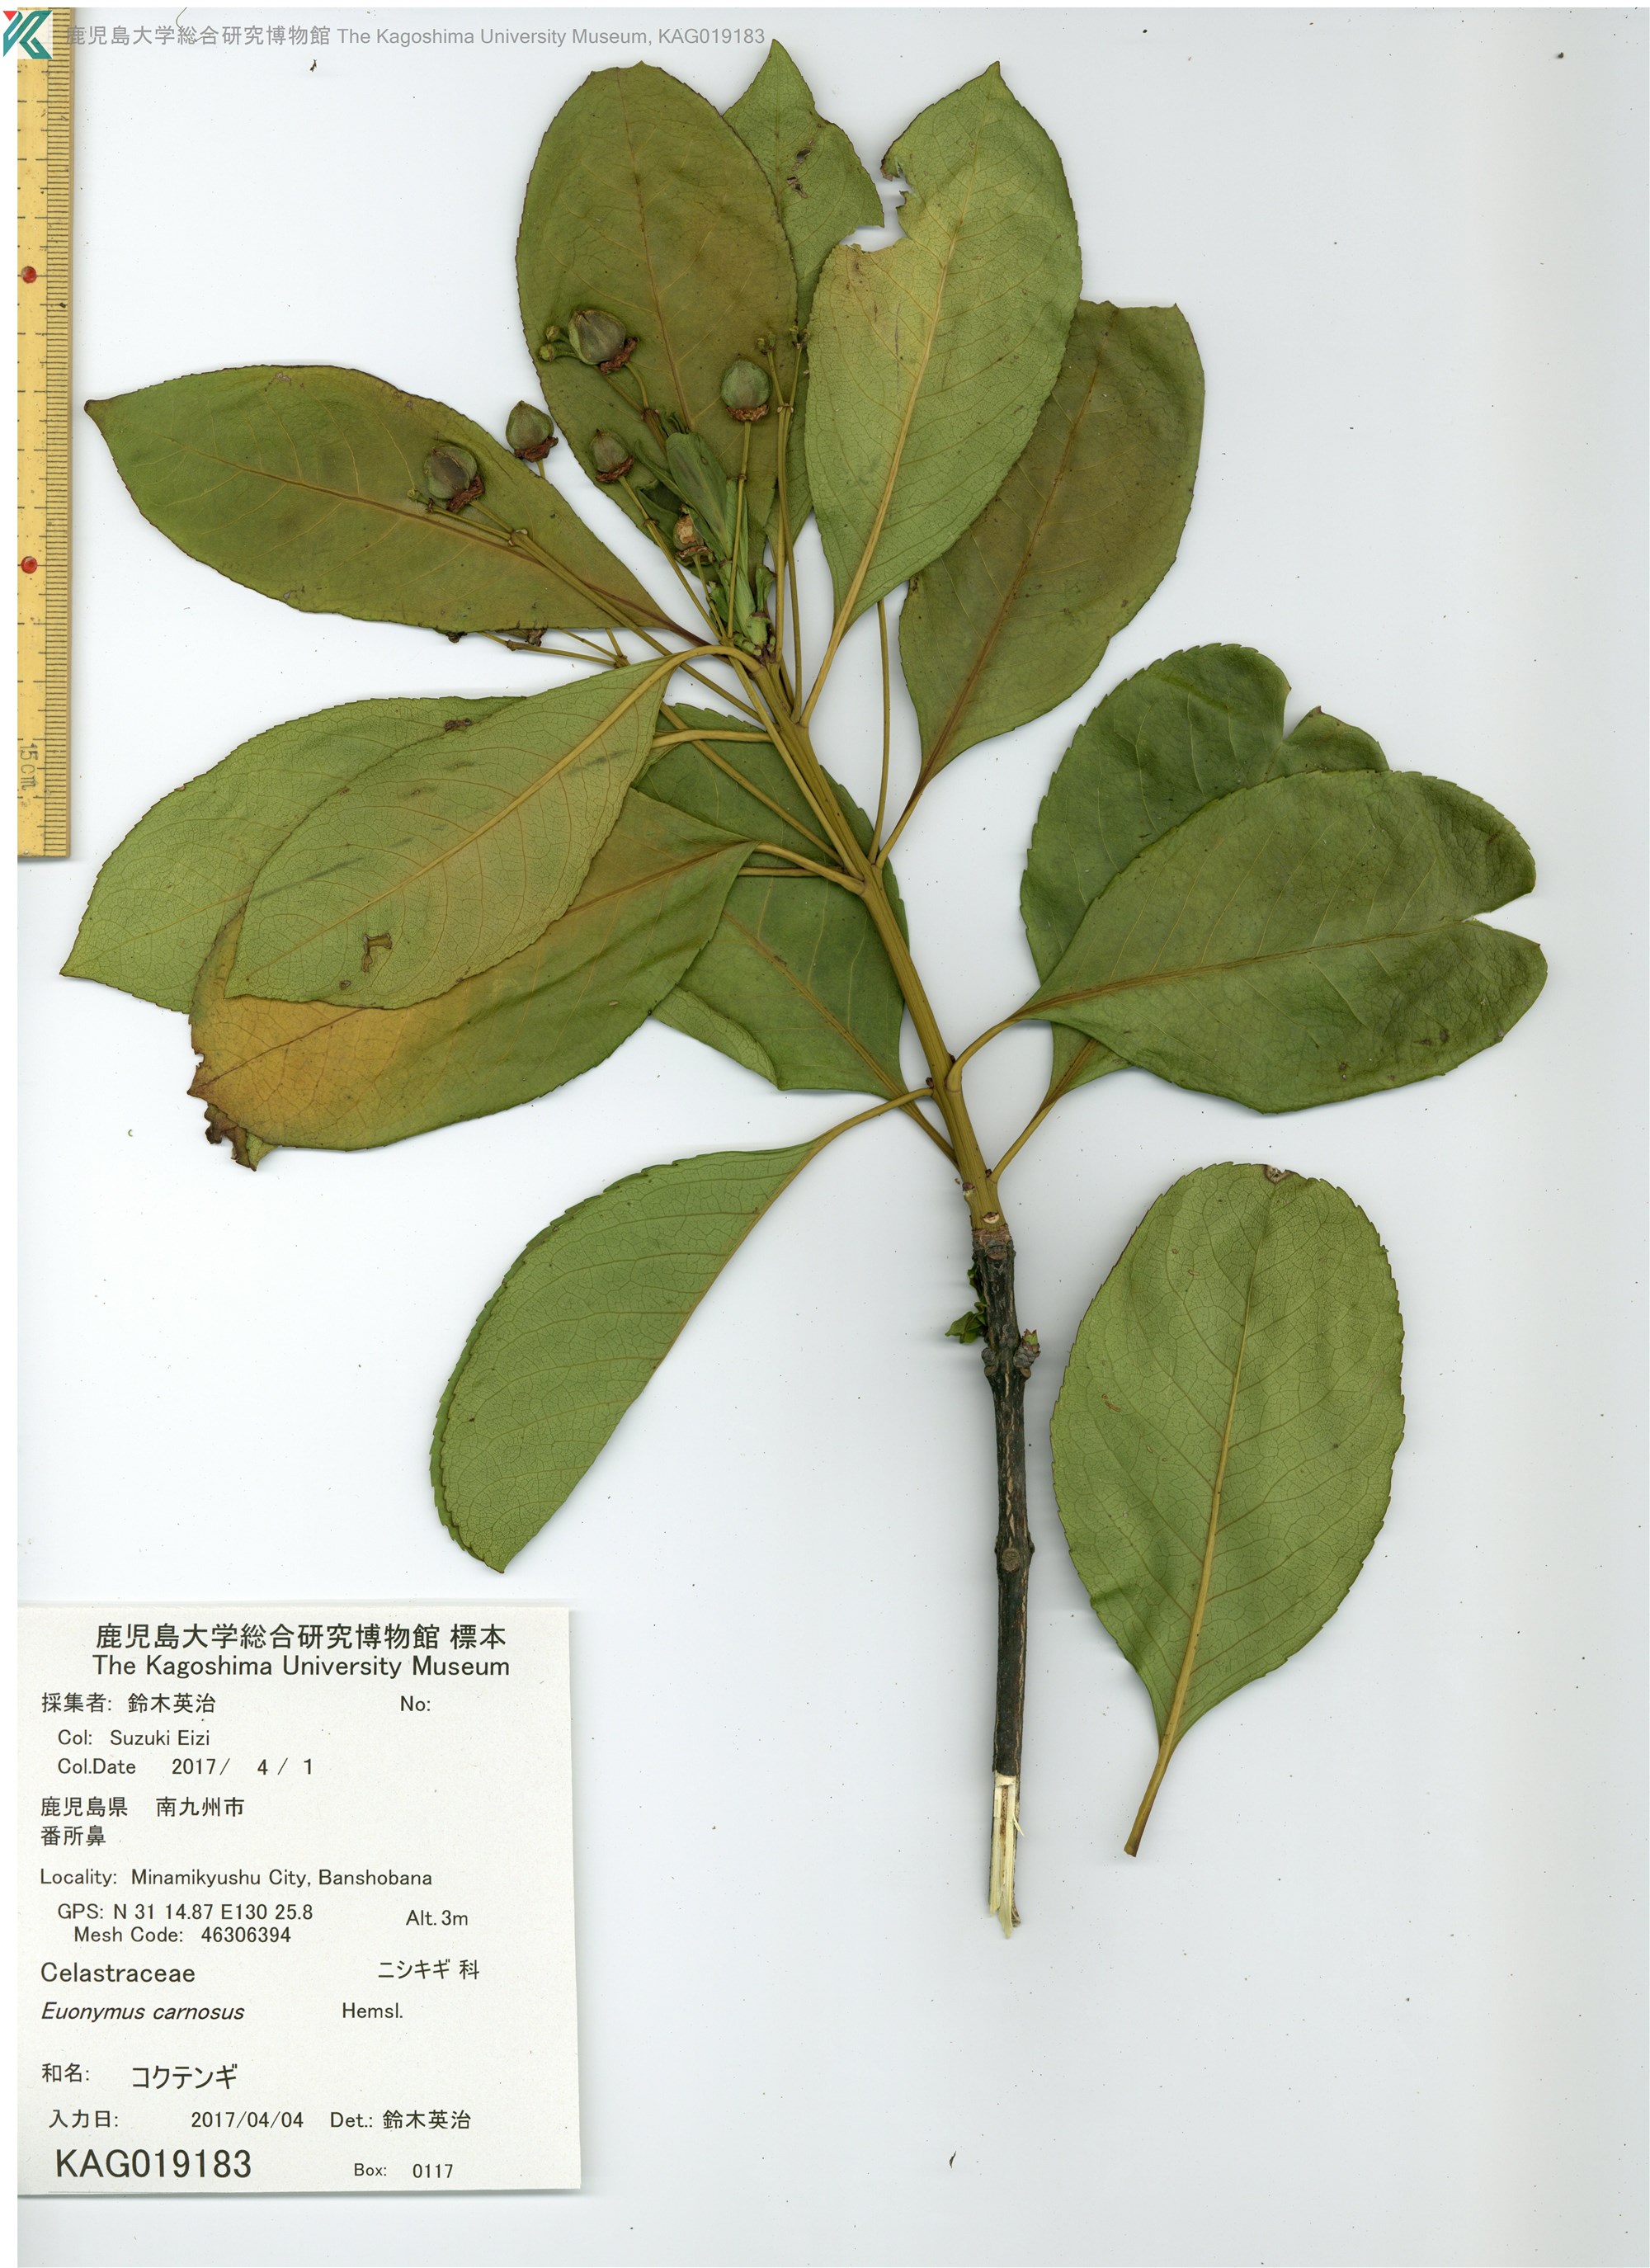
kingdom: Plantae
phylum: Tracheophyta
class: Magnoliopsida
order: Celastrales
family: Celastraceae
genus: Euonymus
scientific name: Euonymus carnosus
